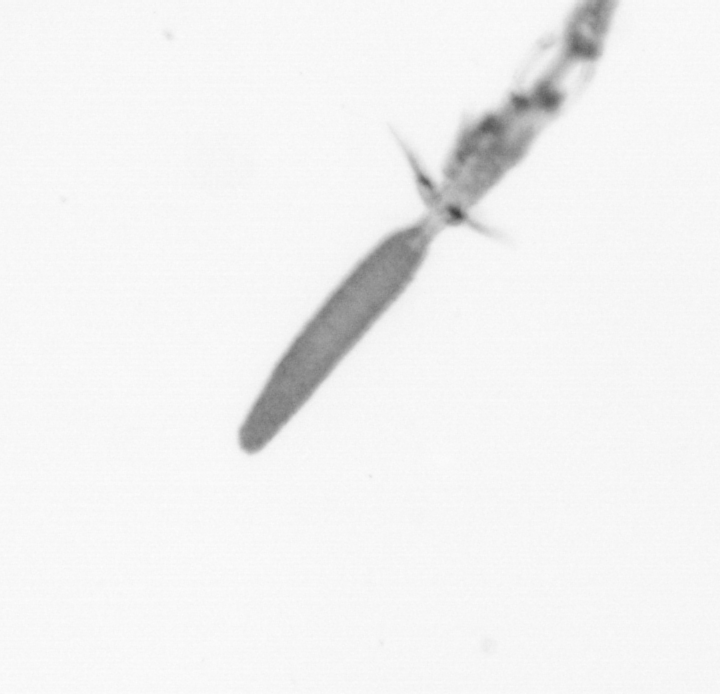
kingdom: Animalia
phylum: Arthropoda
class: Copepoda
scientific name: Copepoda
